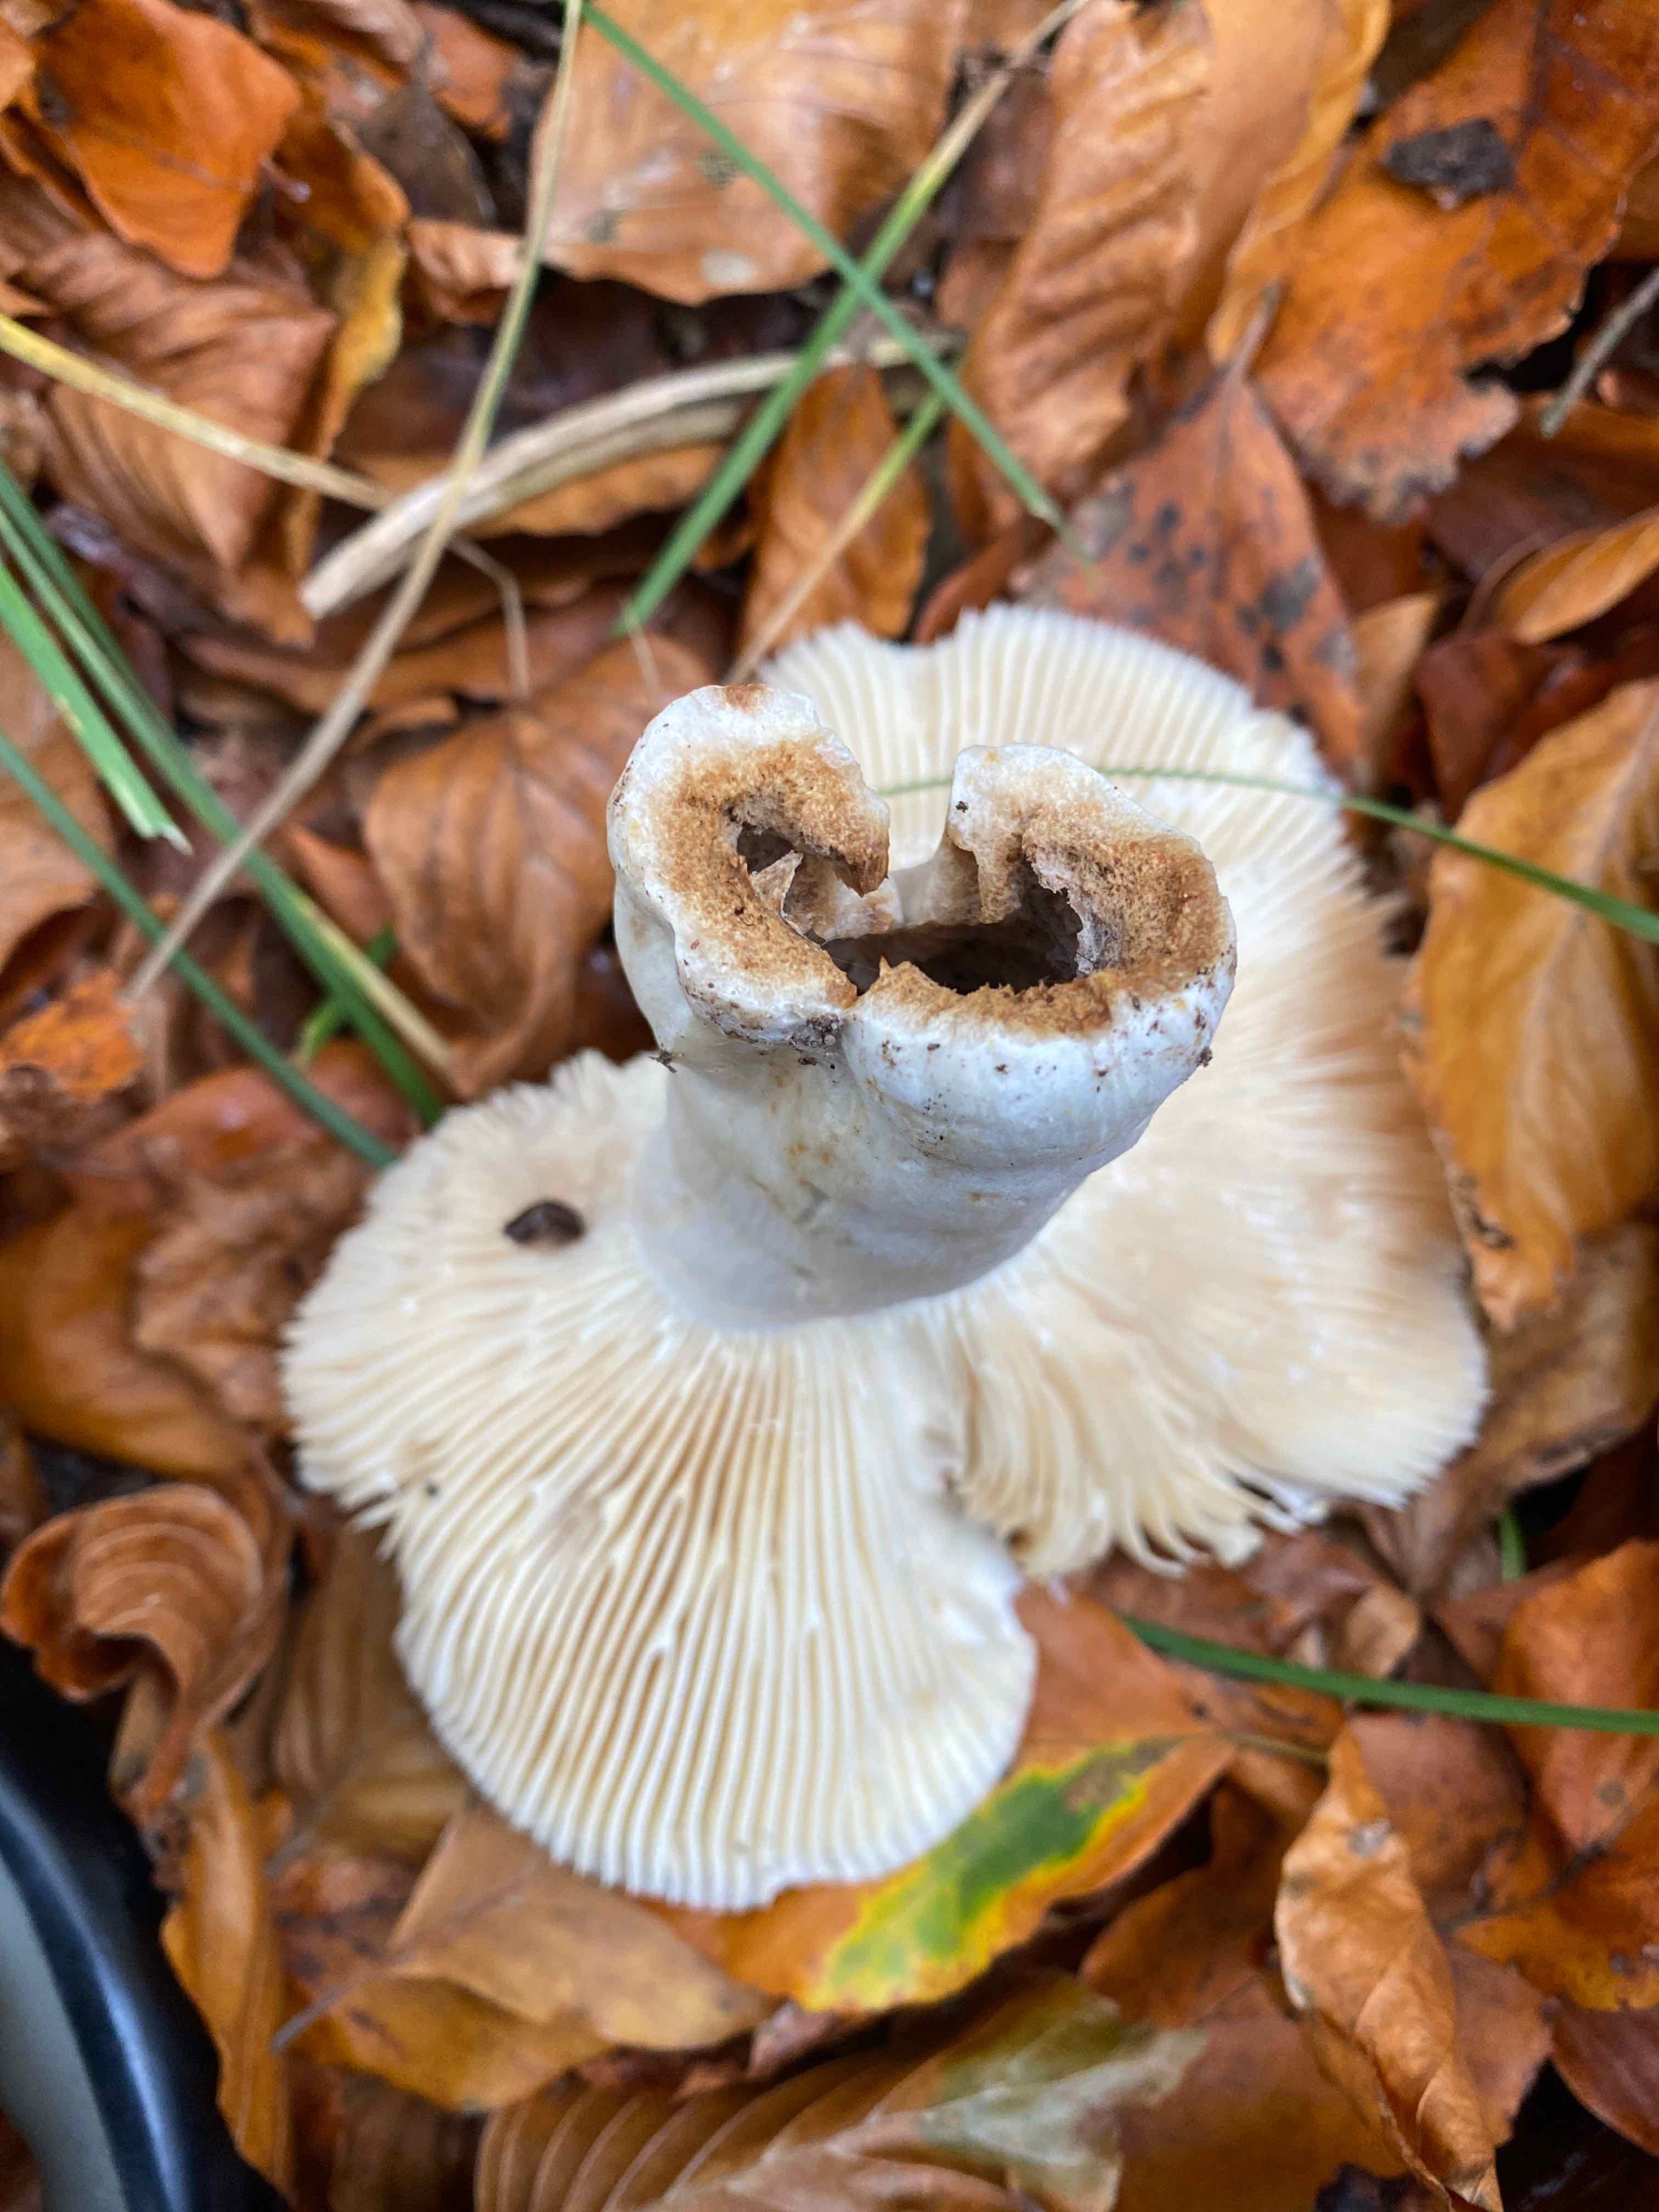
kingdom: Fungi
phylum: Basidiomycota
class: Agaricomycetes
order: Russulales
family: Russulaceae
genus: Russula
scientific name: Russula
